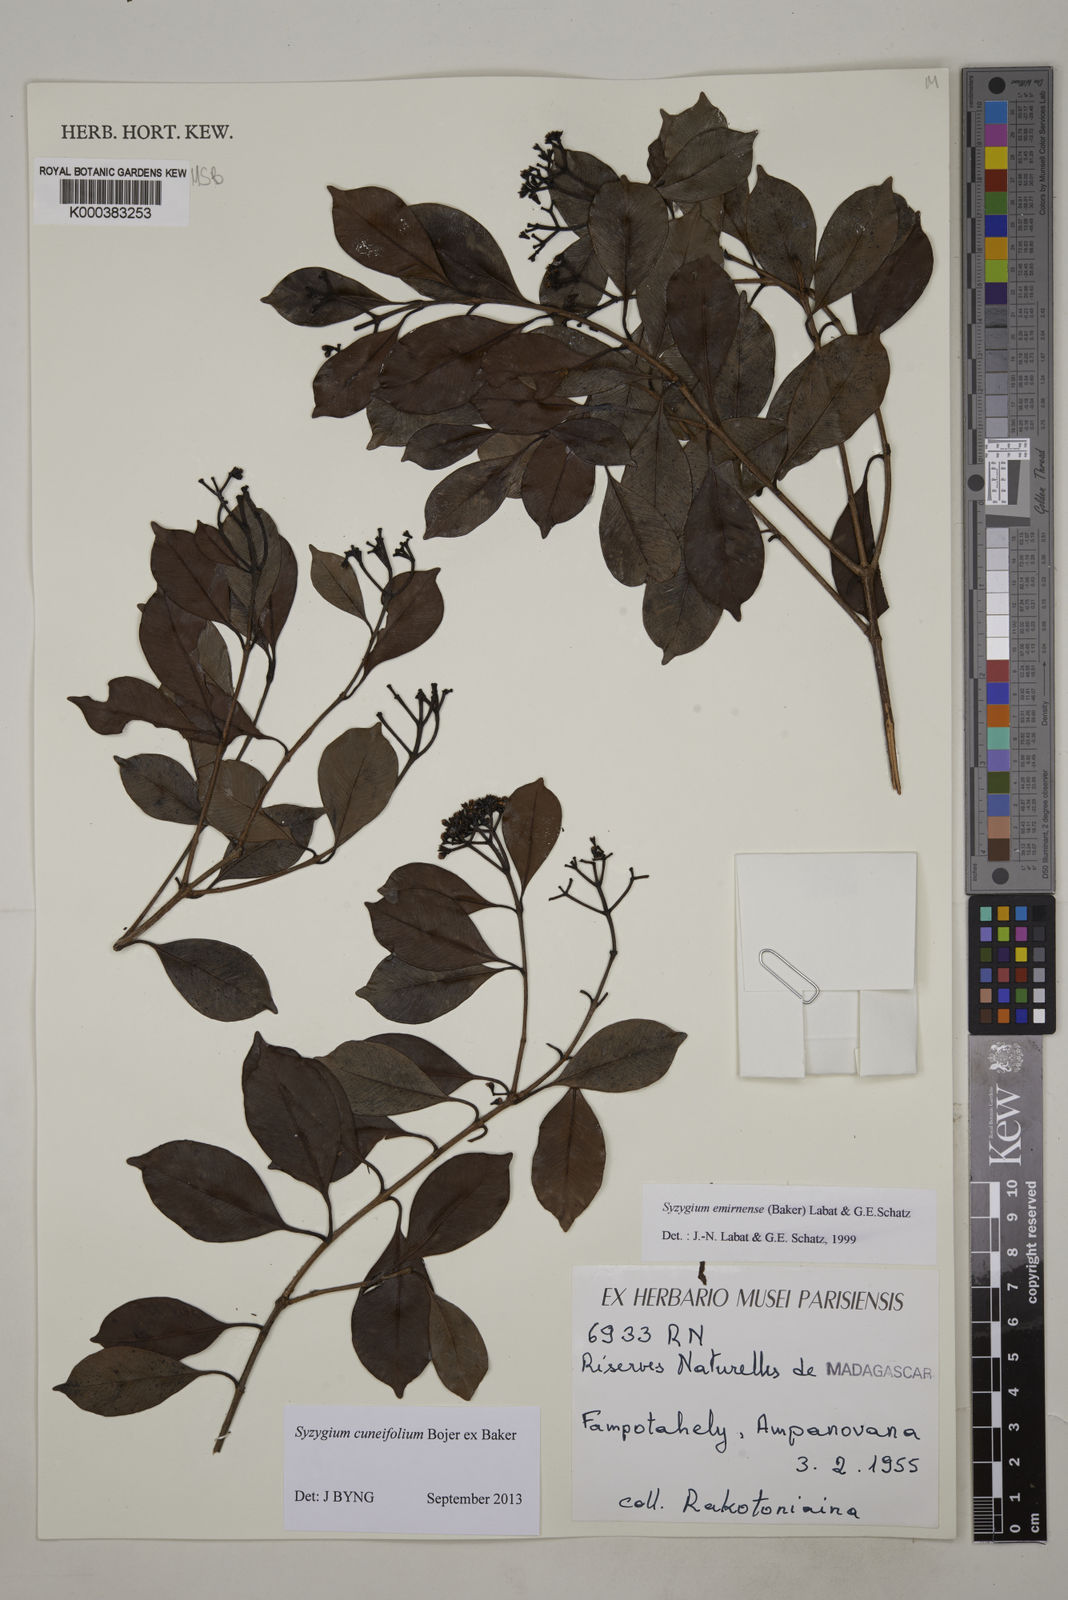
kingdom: Plantae
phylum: Tracheophyta
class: Magnoliopsida
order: Myrtales
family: Myrtaceae
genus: Syzygium
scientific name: Syzygium emirnense
